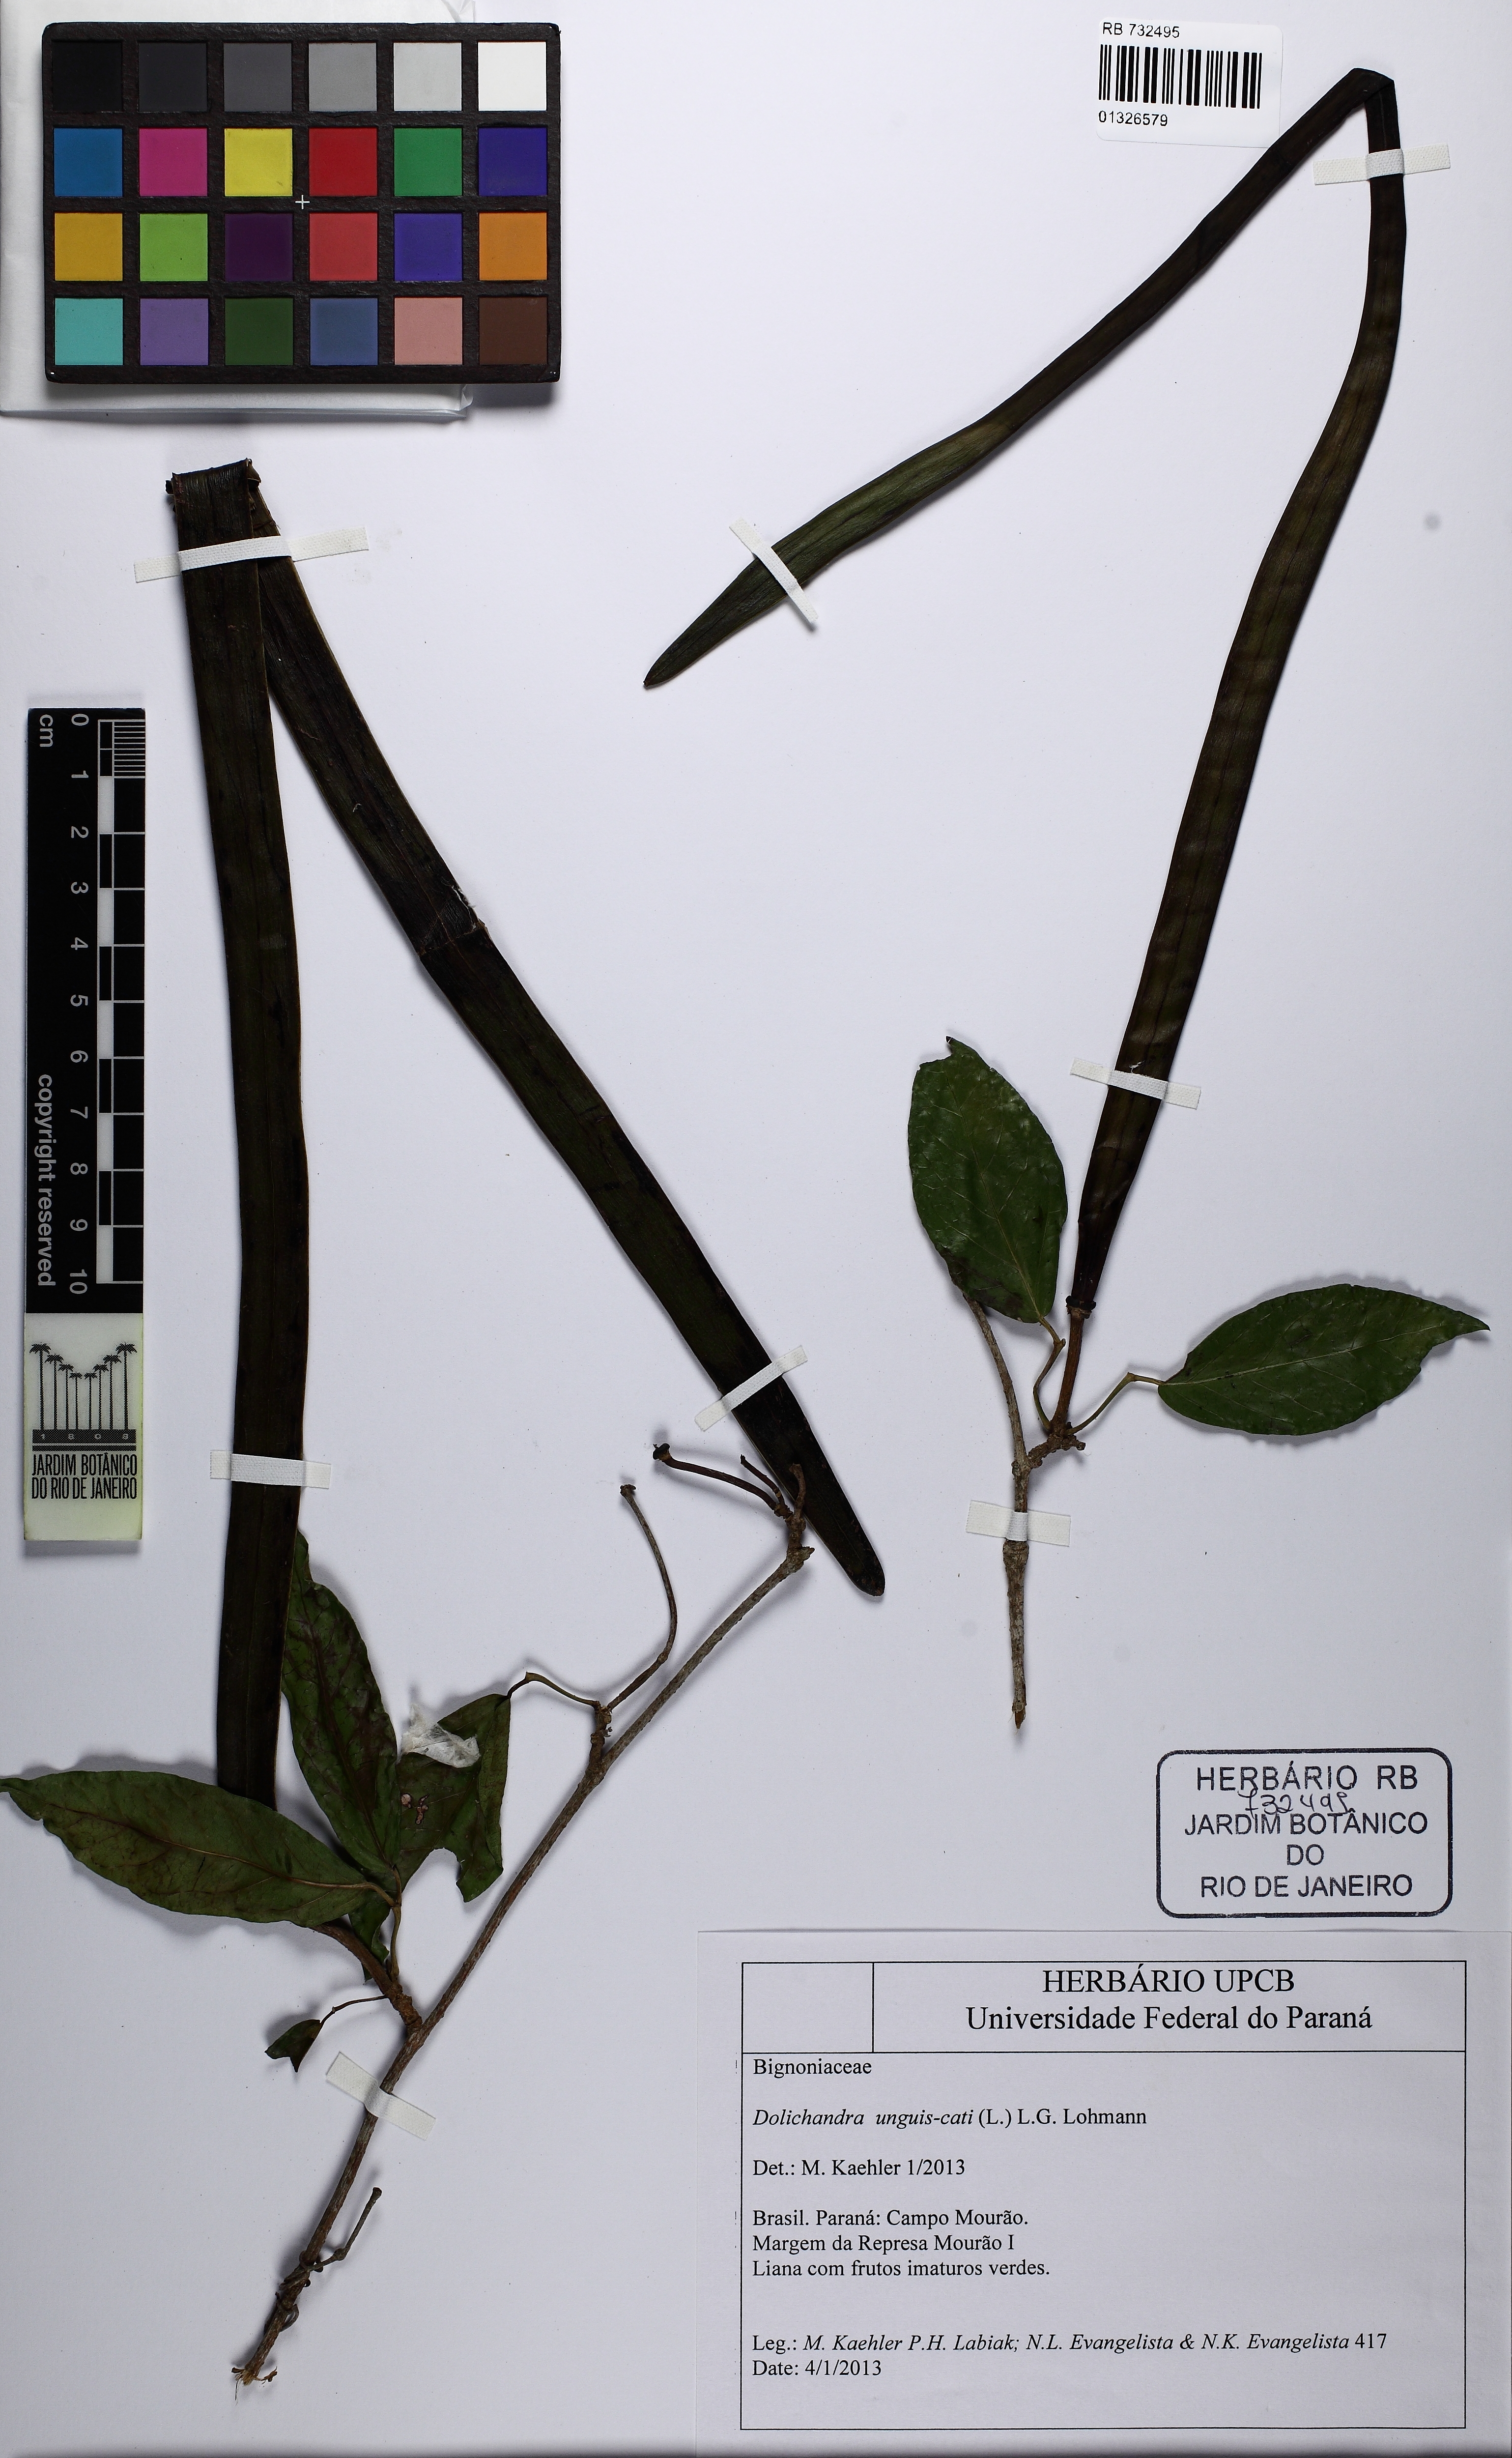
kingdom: Plantae
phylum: Tracheophyta
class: Magnoliopsida
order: Lamiales
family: Bignoniaceae
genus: Dolichandra
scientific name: Dolichandra unguis-cati
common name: Catclaw vine
